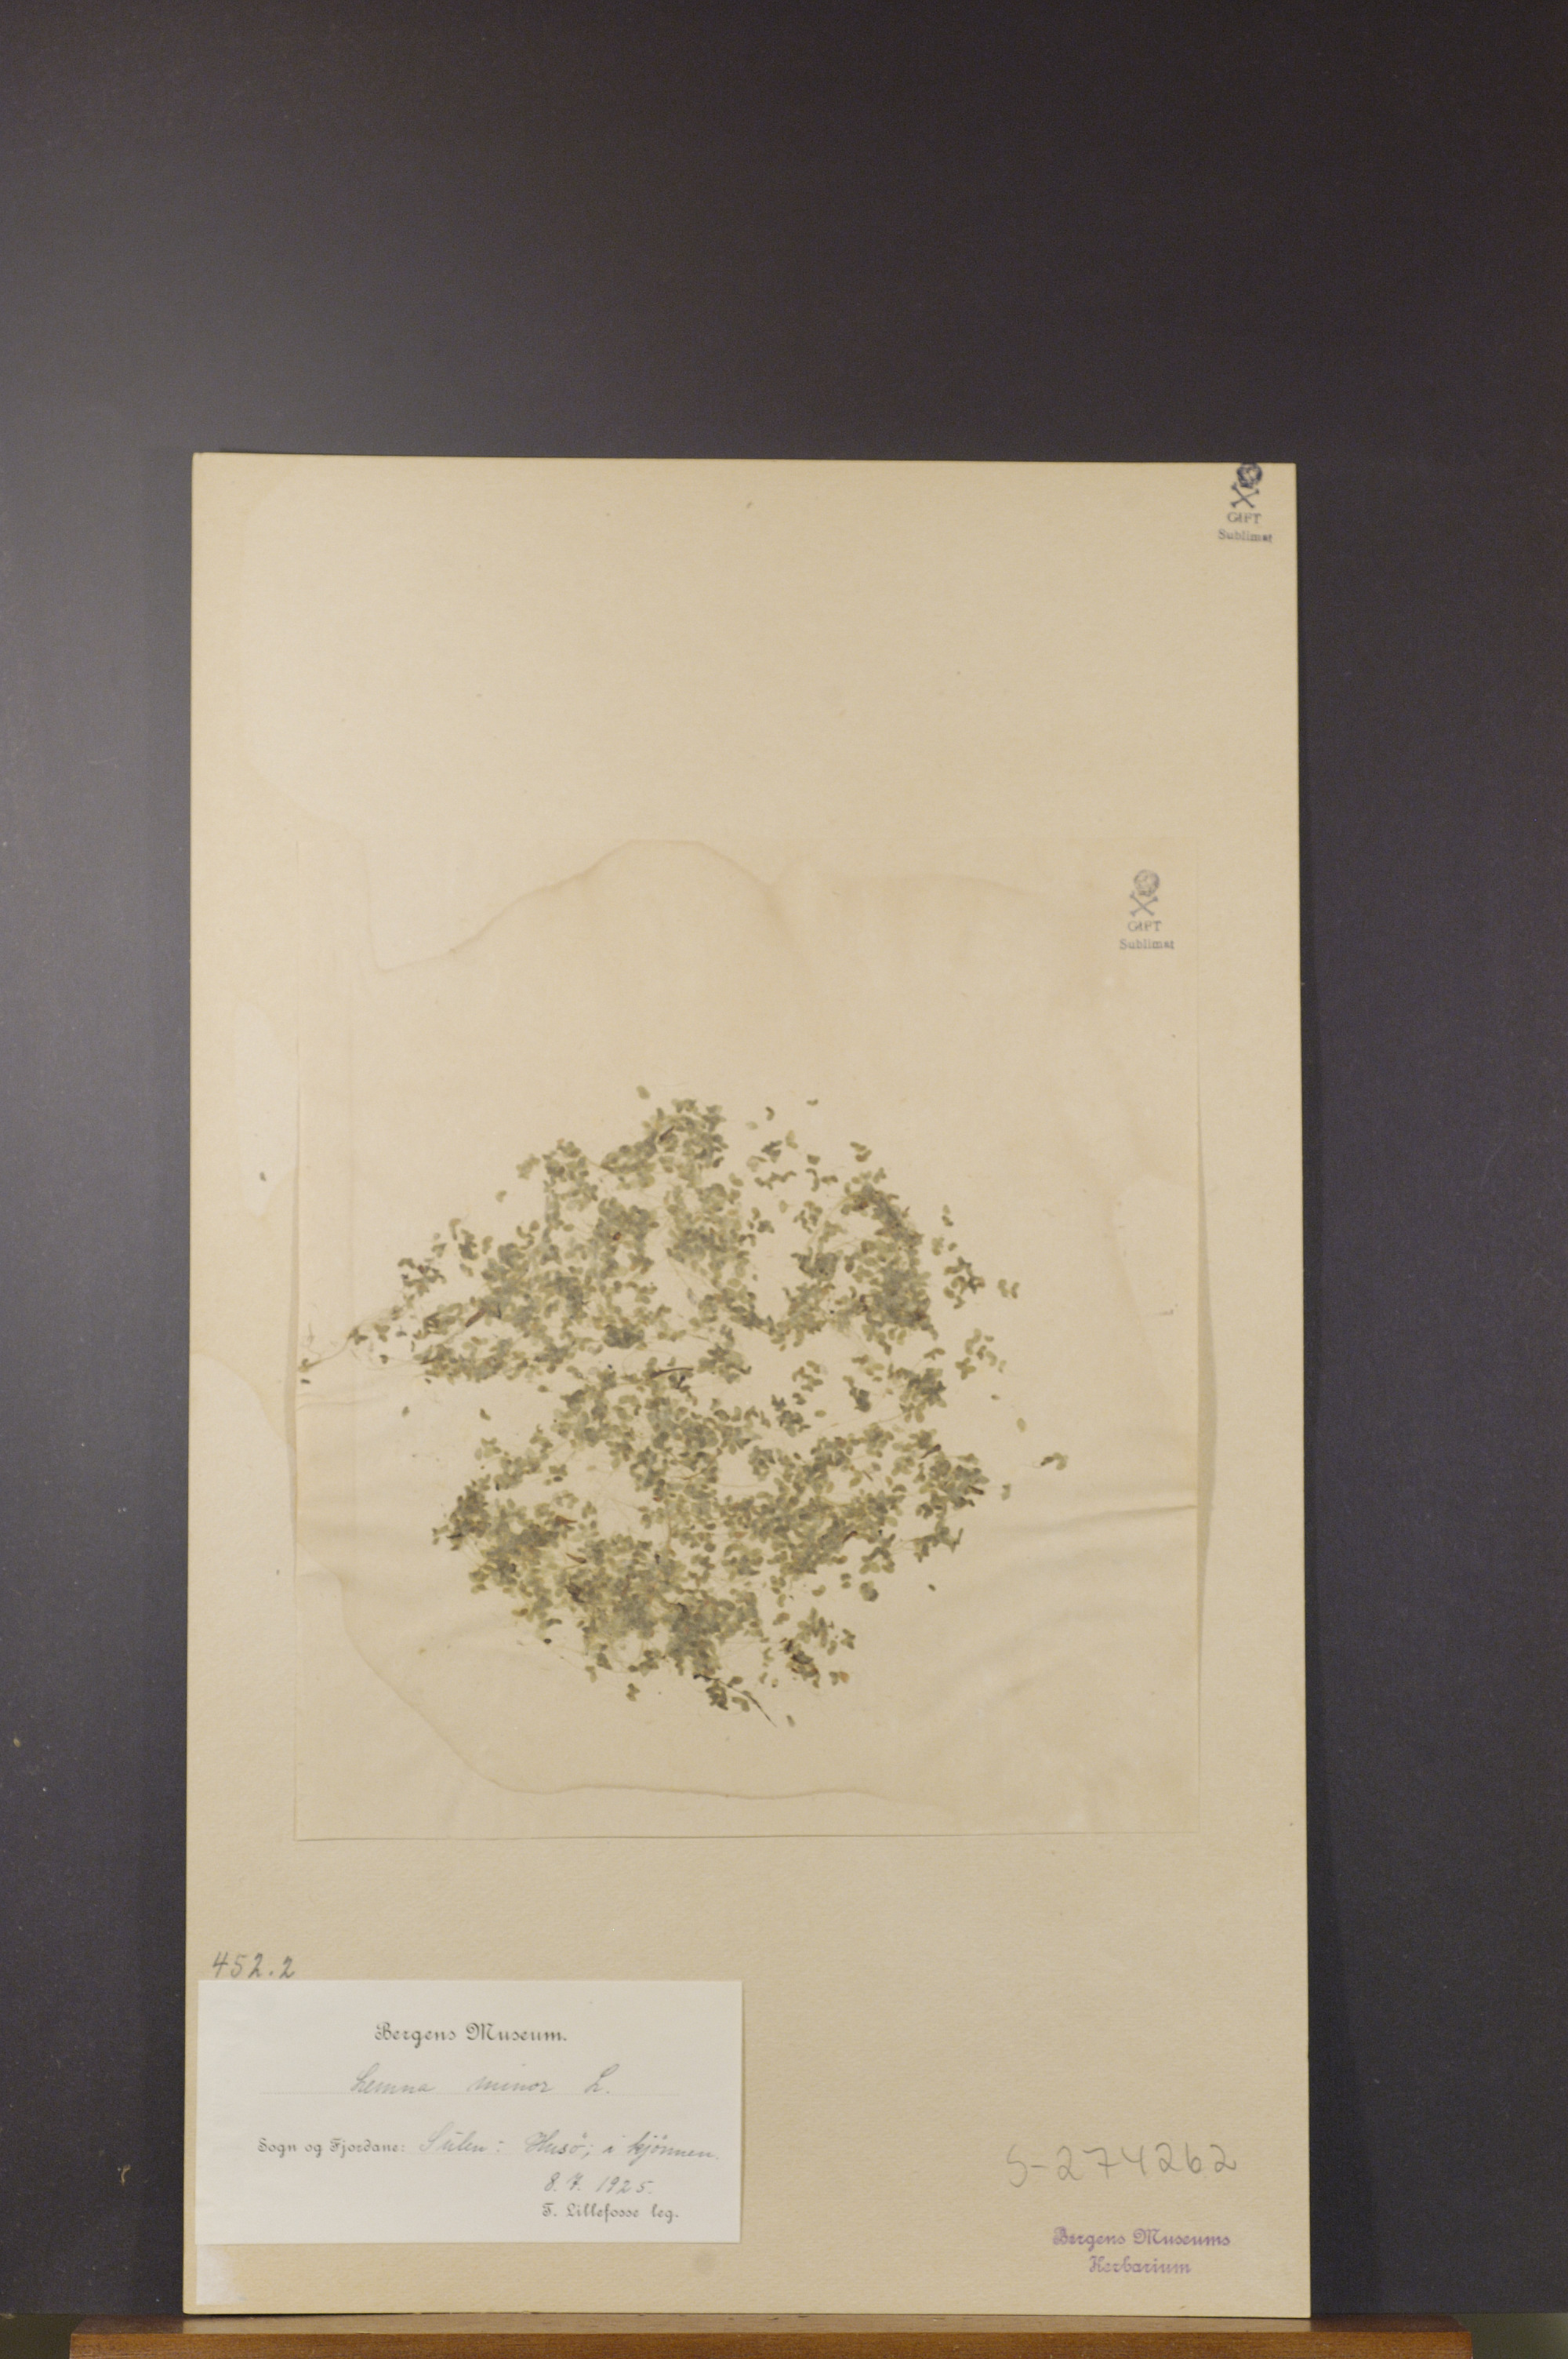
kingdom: Plantae
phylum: Tracheophyta
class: Liliopsida
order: Alismatales
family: Araceae
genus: Lemna
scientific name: Lemna minor
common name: Common duckweed
